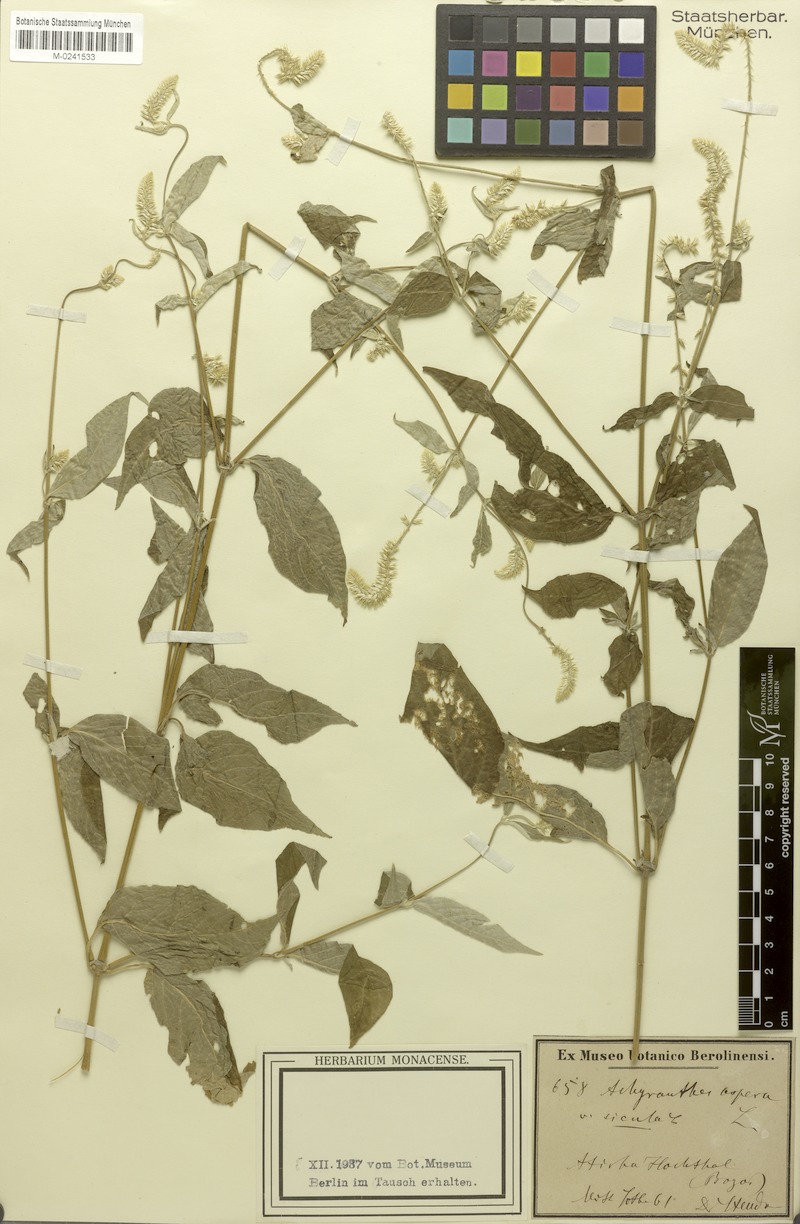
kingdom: Plantae
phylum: Tracheophyta
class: Magnoliopsida
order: Caryophyllales
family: Amaranthaceae
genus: Achyranthes
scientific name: Achyranthes aspera
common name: Devil's horsewhip
